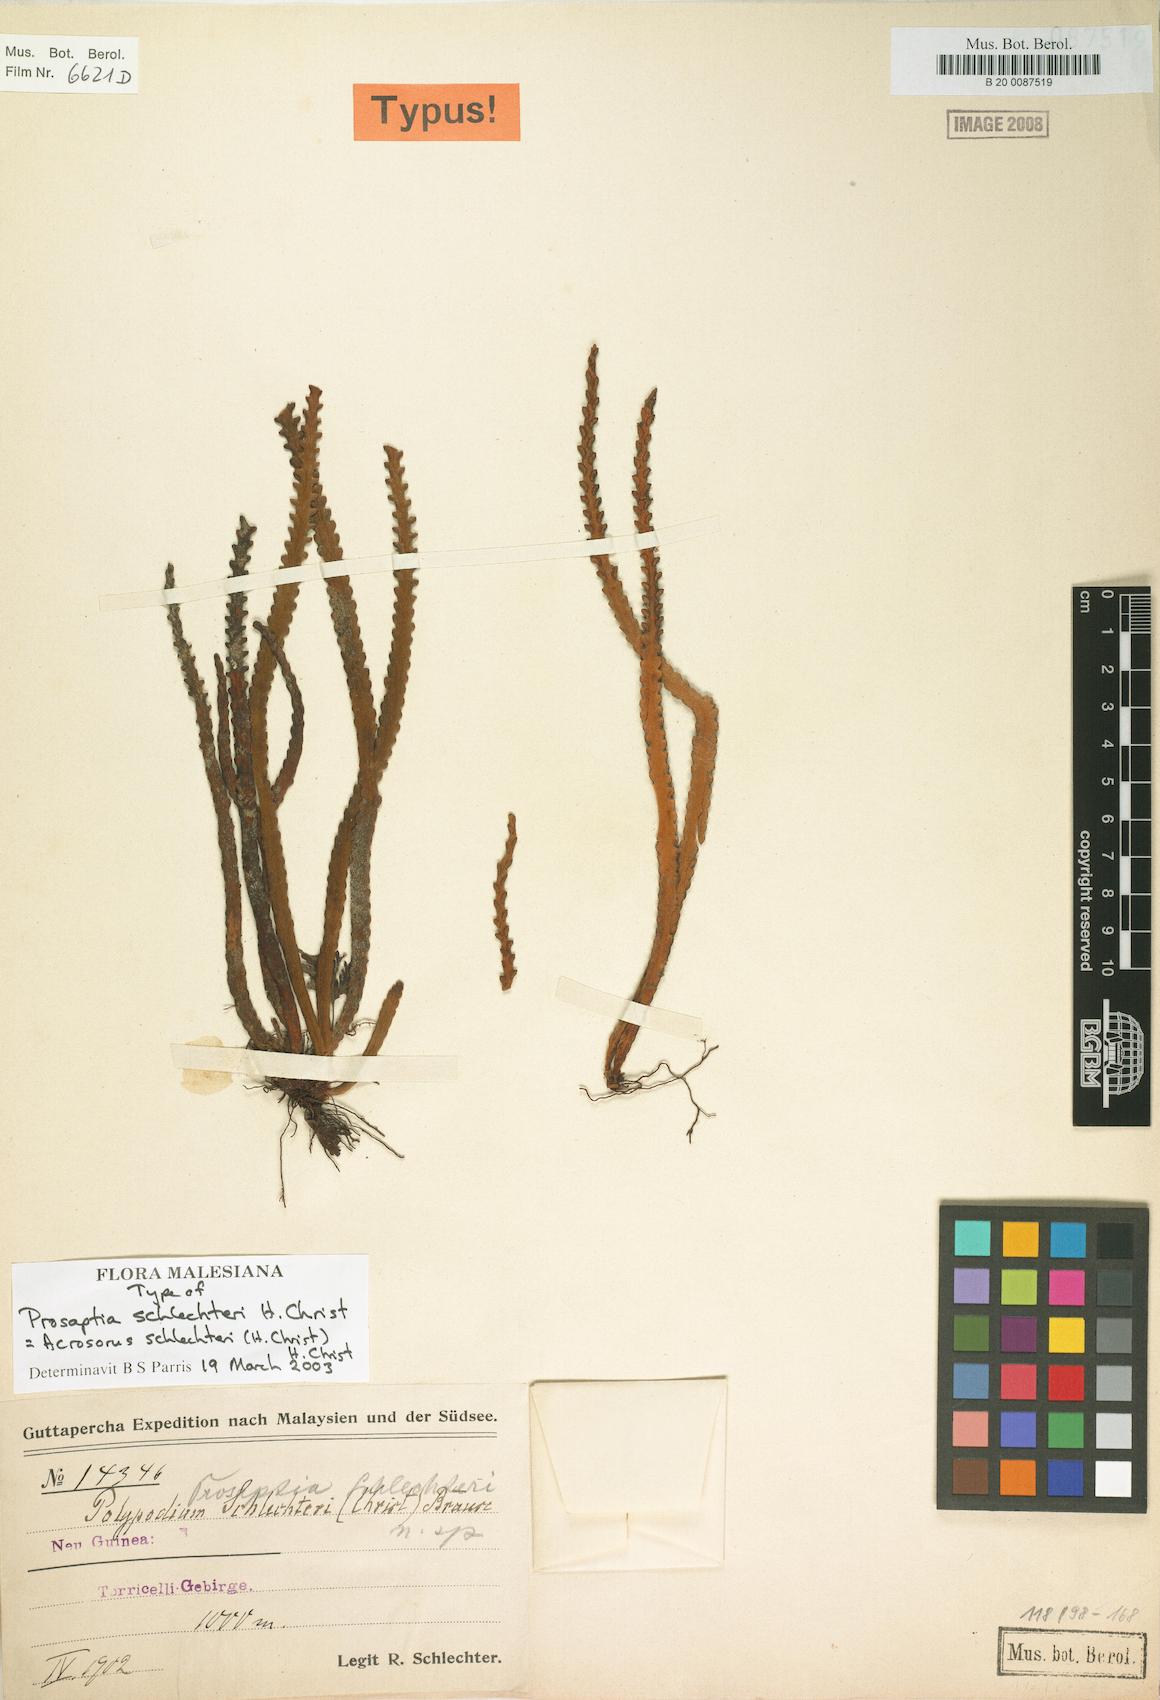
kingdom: Plantae
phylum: Tracheophyta
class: Polypodiopsida
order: Polypodiales
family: Polypodiaceae
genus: Acrosorus
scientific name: Acrosorus schlechteri
